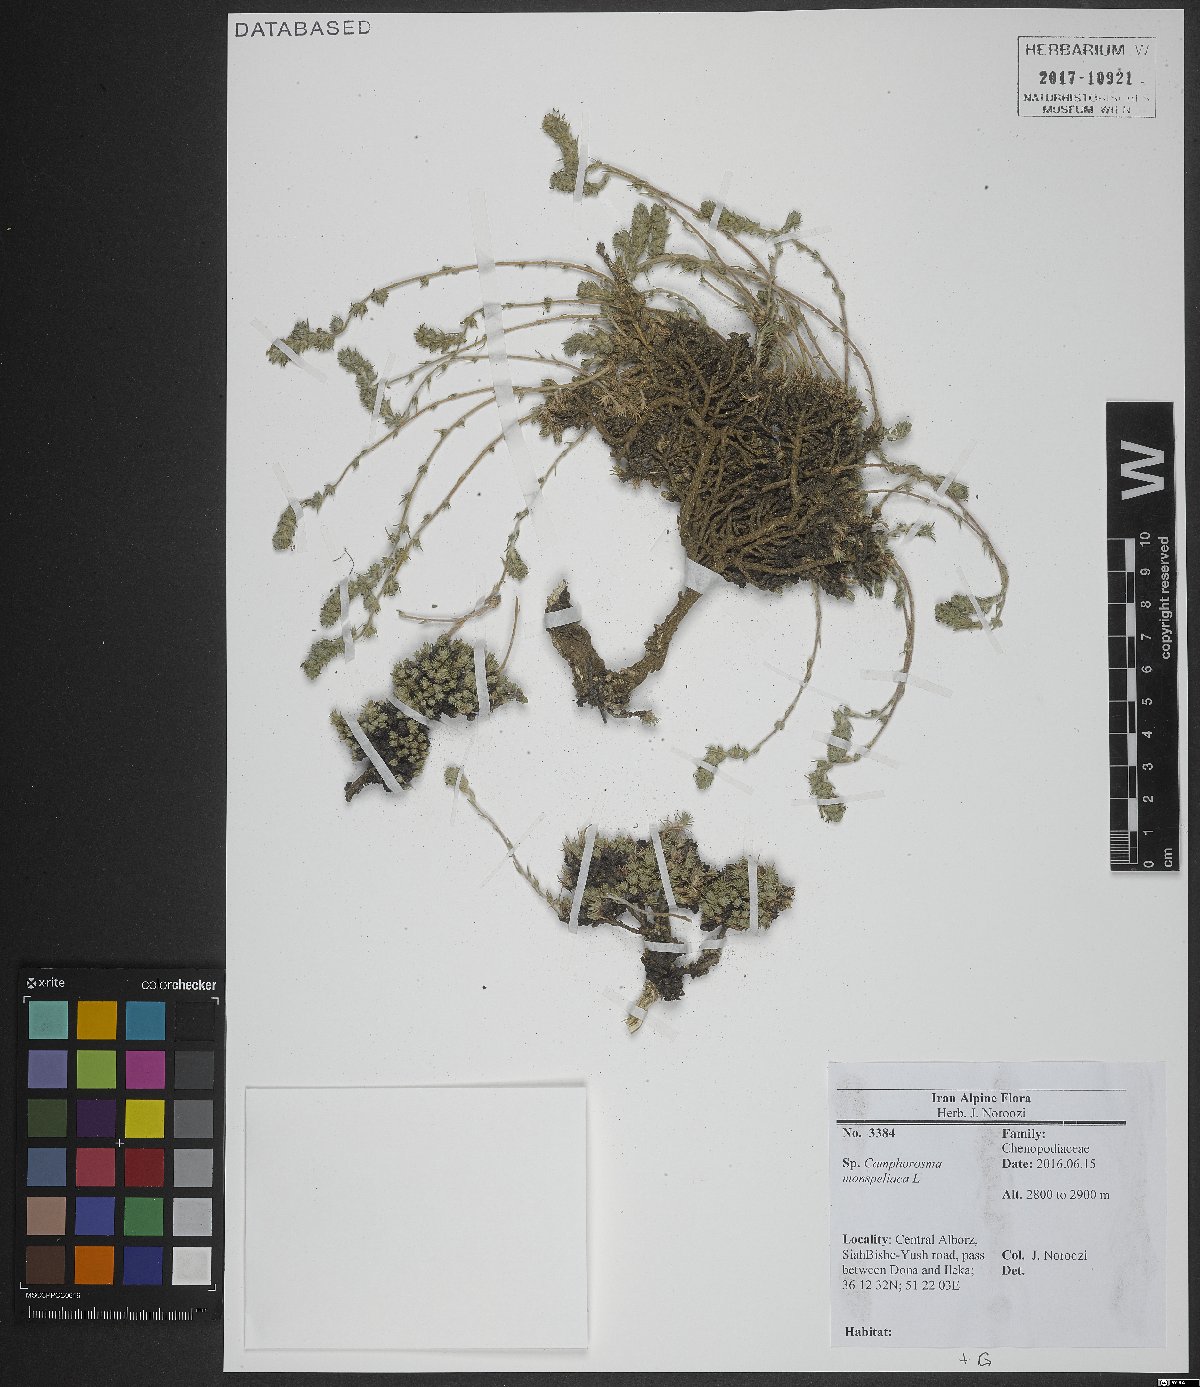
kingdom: Plantae
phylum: Tracheophyta
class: Magnoliopsida
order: Caryophyllales
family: Amaranthaceae
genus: Camphorosma
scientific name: Camphorosma monspeliaca
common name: Camphorfume
